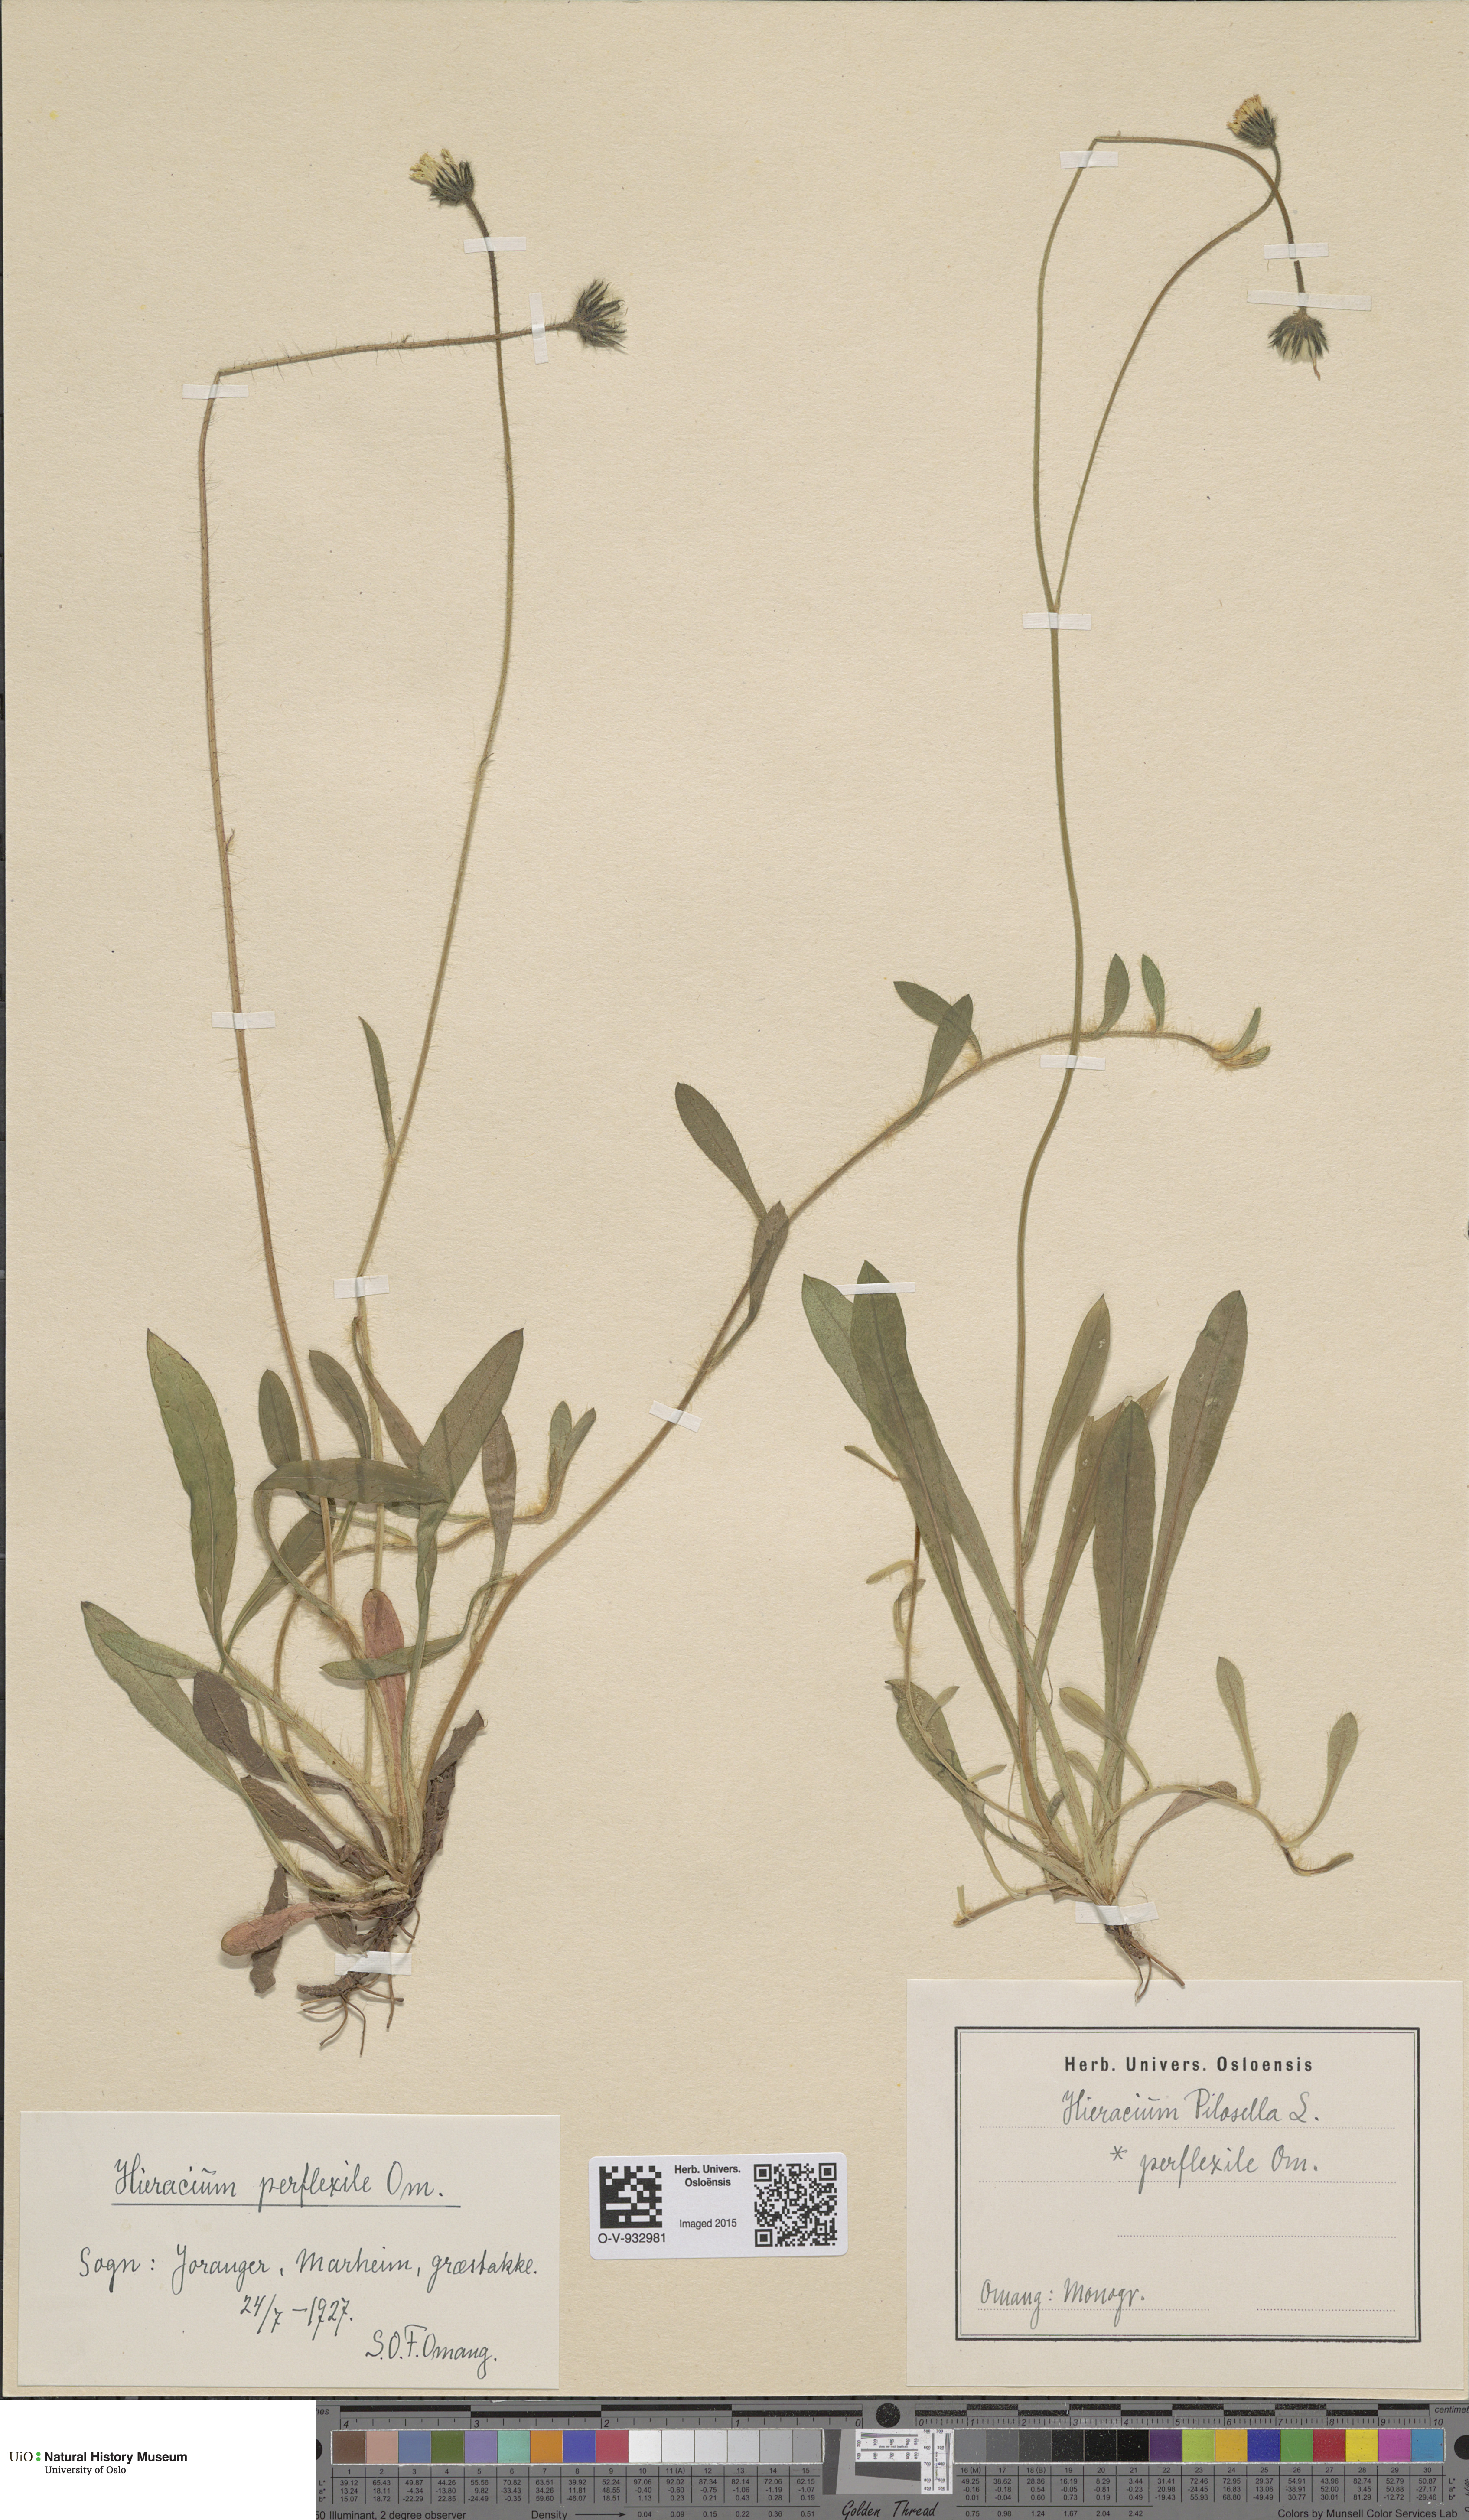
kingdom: Plantae
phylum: Tracheophyta
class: Magnoliopsida
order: Asterales
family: Asteraceae
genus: Pilosella
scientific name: Pilosella officinarum
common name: Mouse-ear hawkweed
